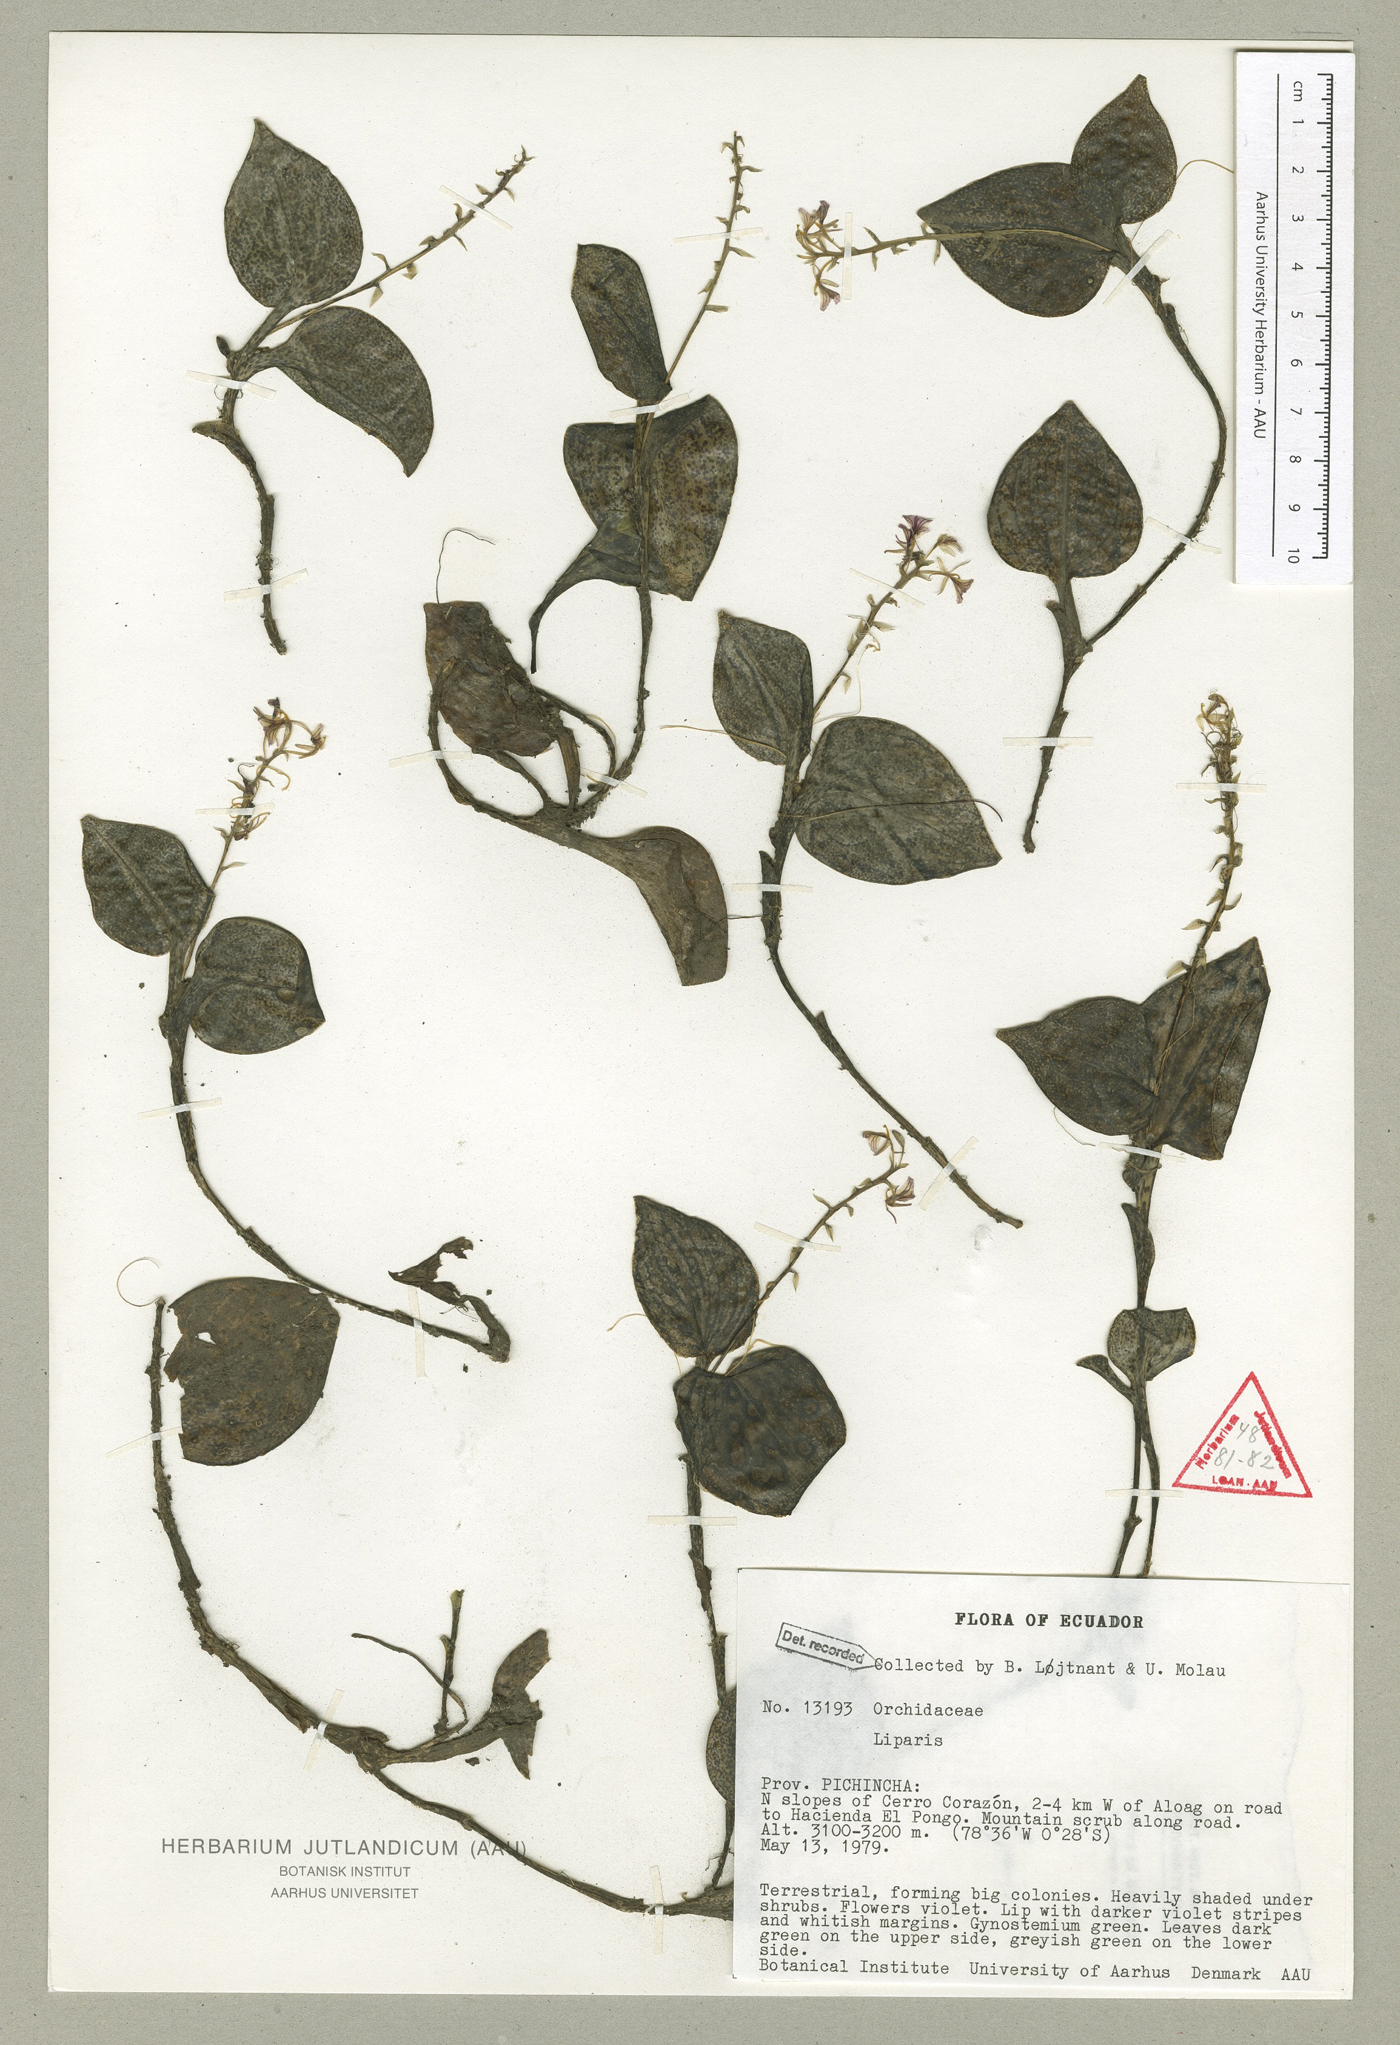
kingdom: Plantae
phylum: Tracheophyta
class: Liliopsida
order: Asparagales
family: Orchidaceae
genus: Liparis
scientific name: Liparis elegantula
